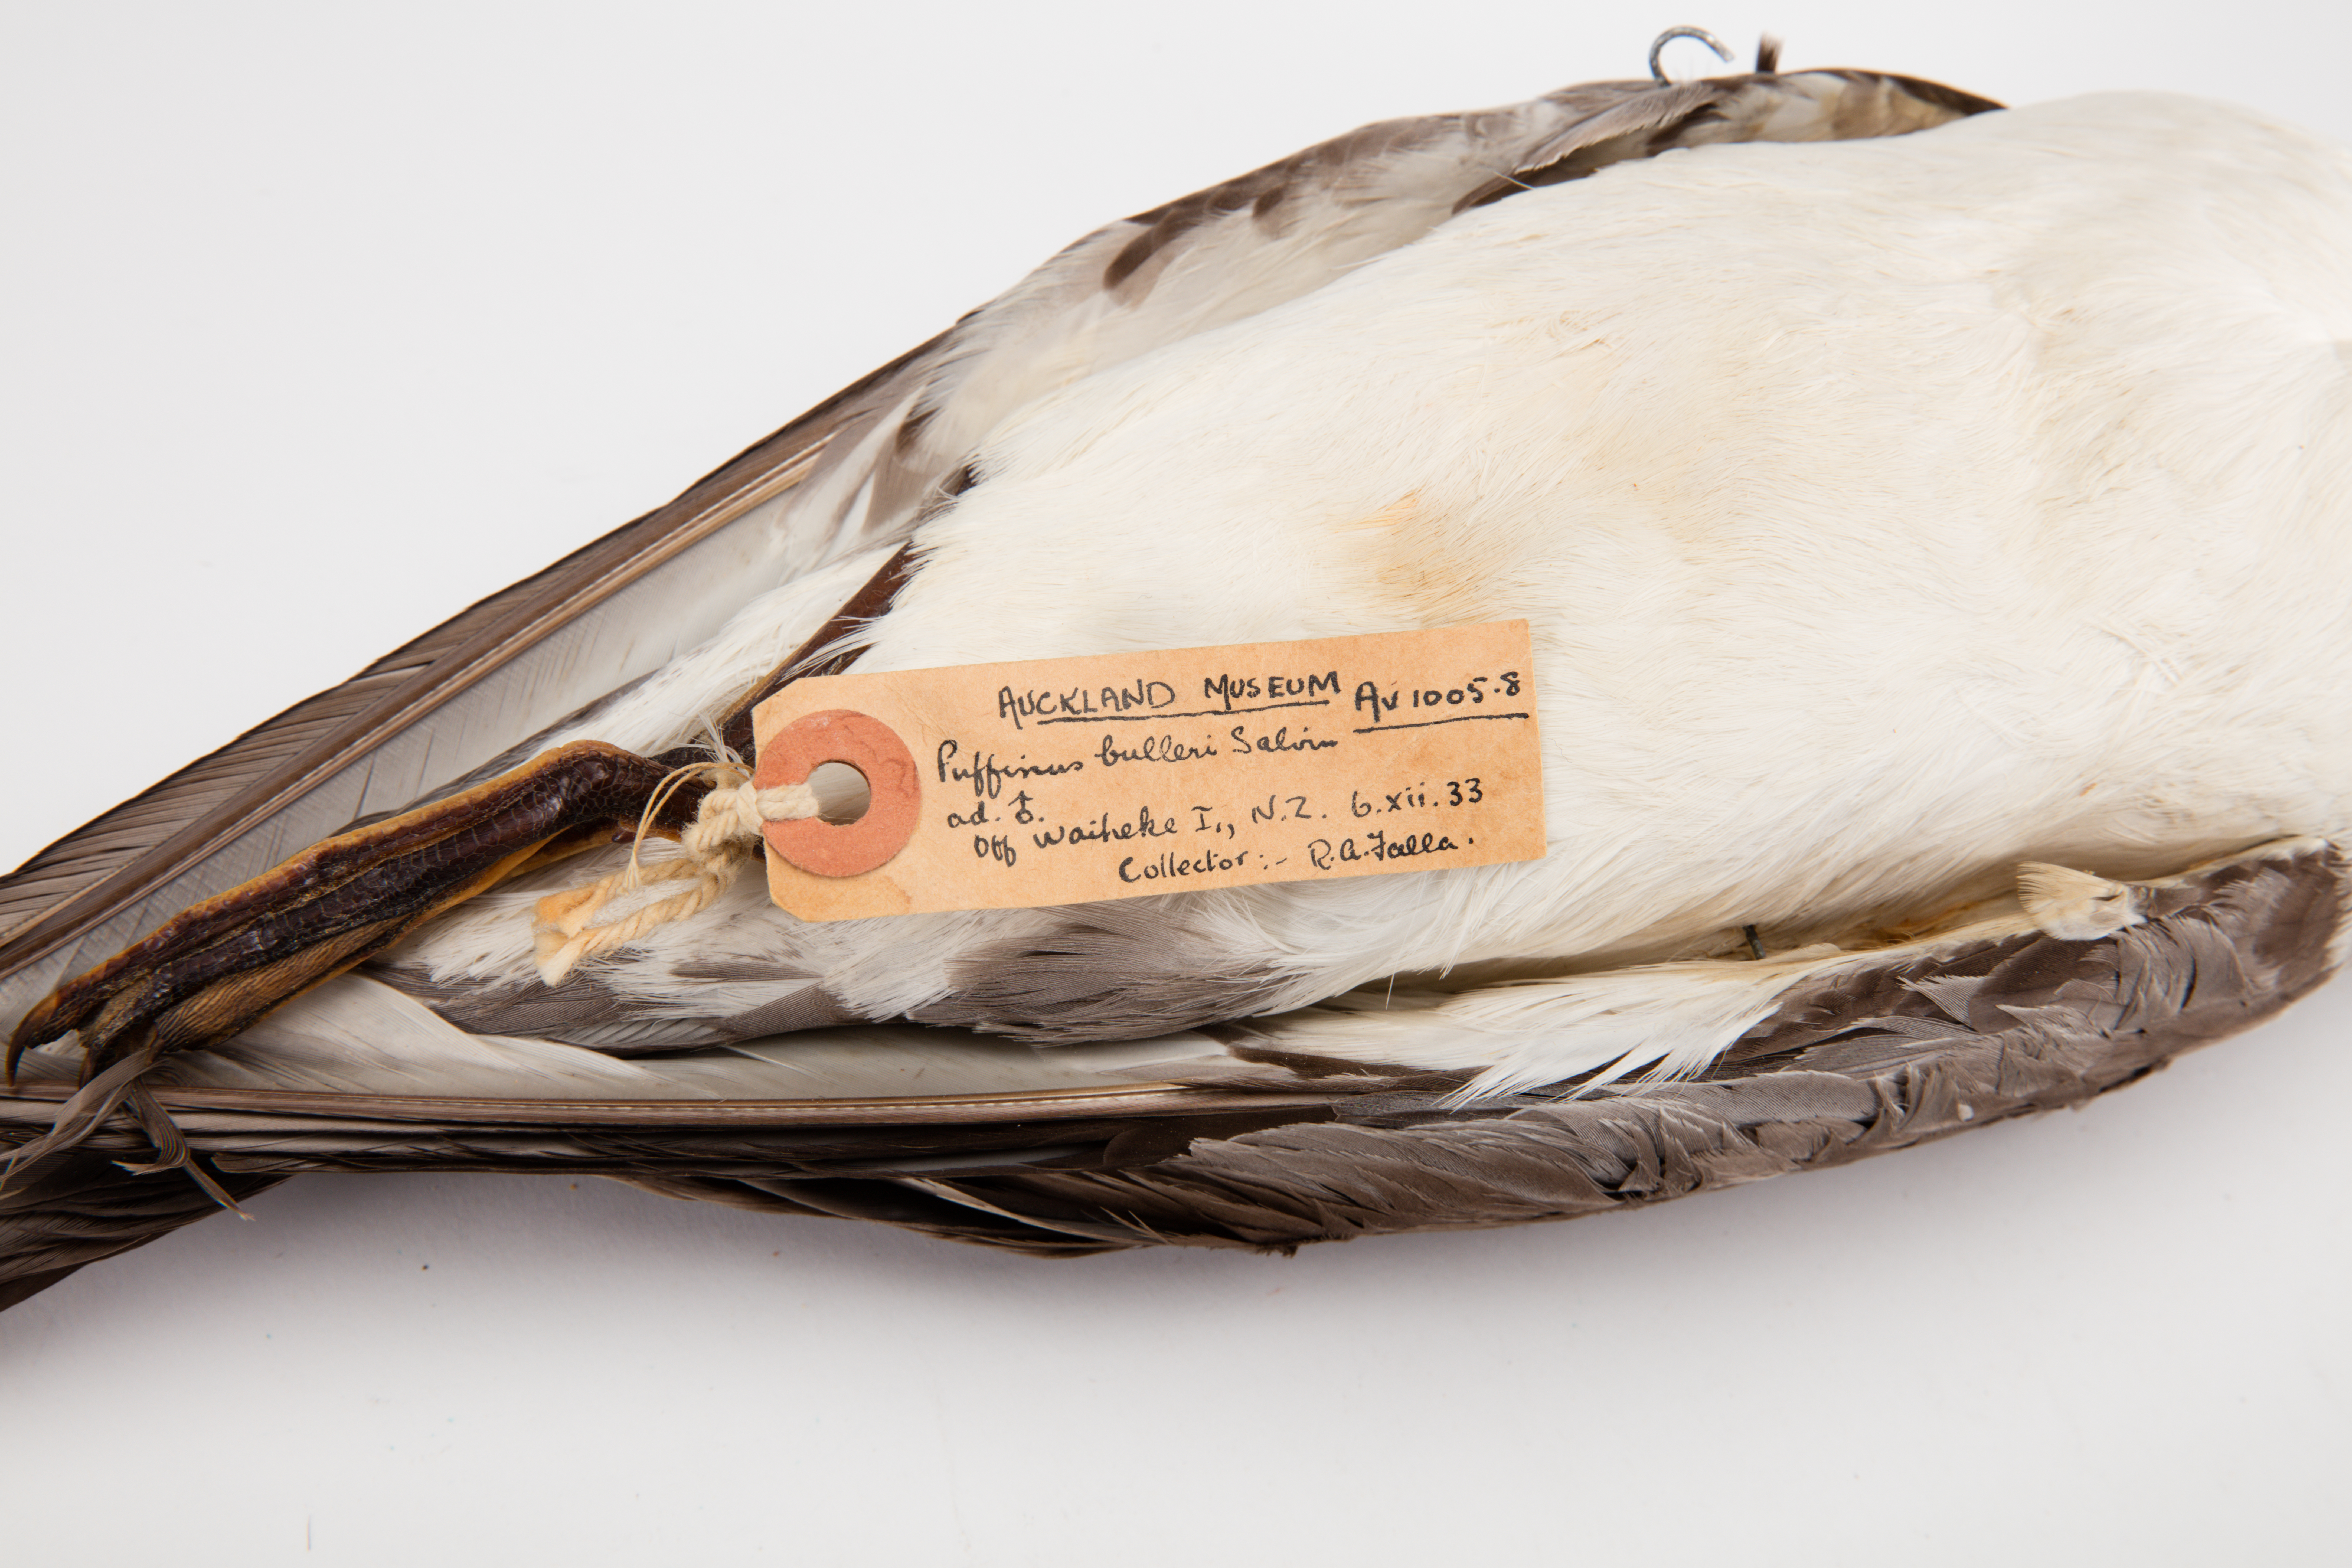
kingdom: Animalia
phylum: Chordata
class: Aves
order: Procellariiformes
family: Procellariidae
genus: Ardenna
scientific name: Ardenna
